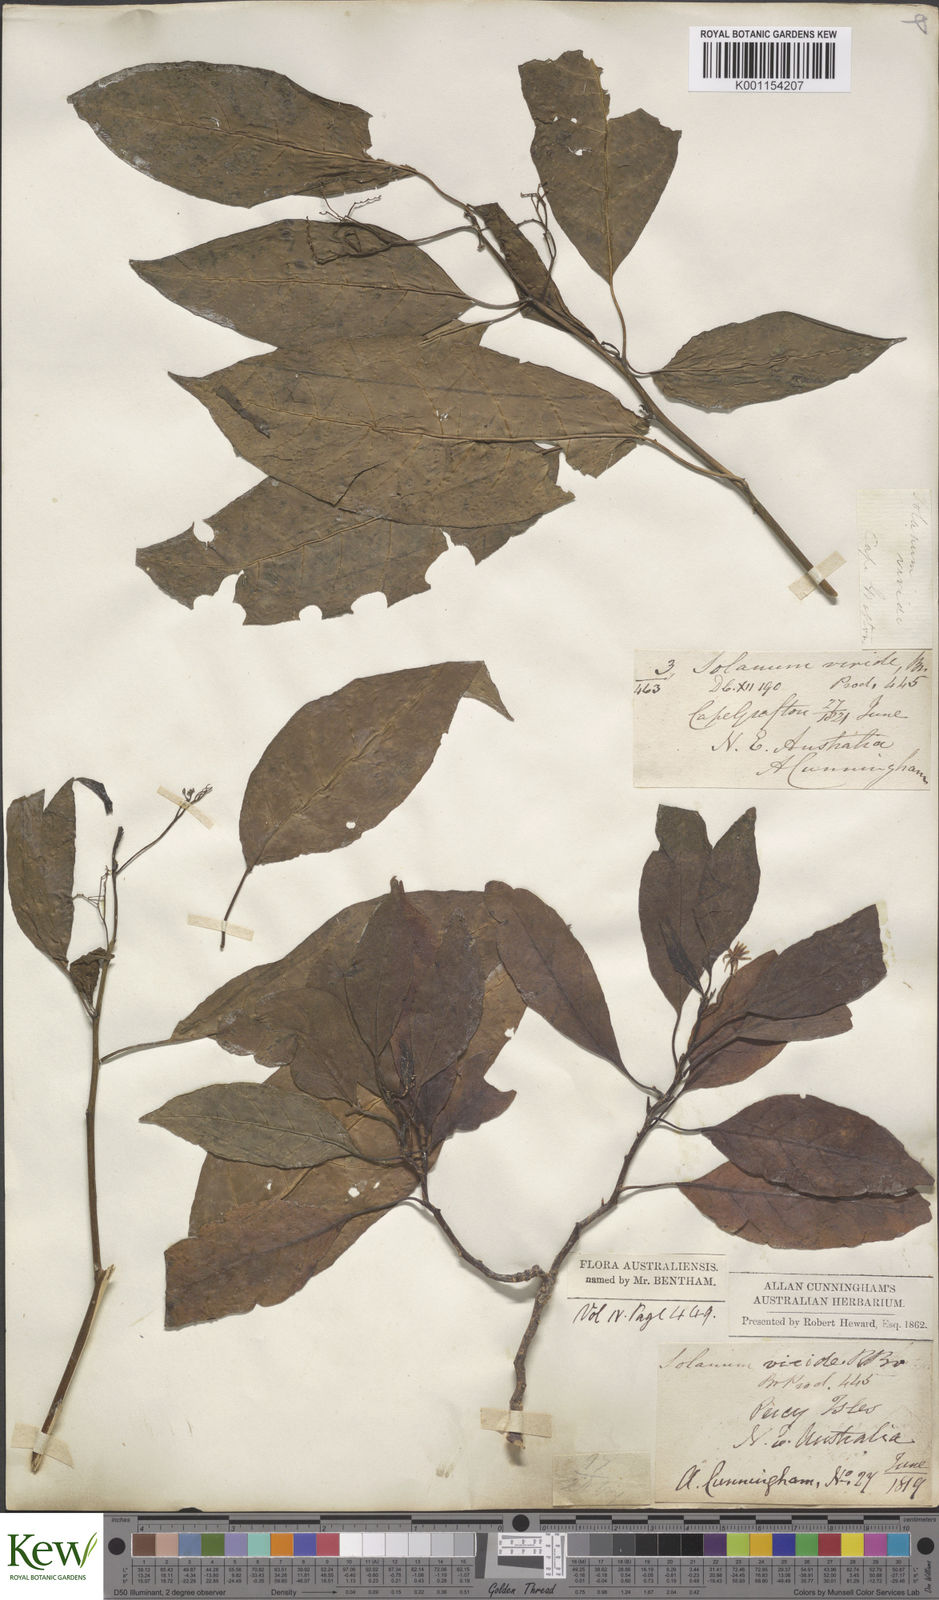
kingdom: Plantae
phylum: Tracheophyta
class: Magnoliopsida
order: Solanales
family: Solanaceae
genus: Solanum
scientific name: Solanum viridifolium
